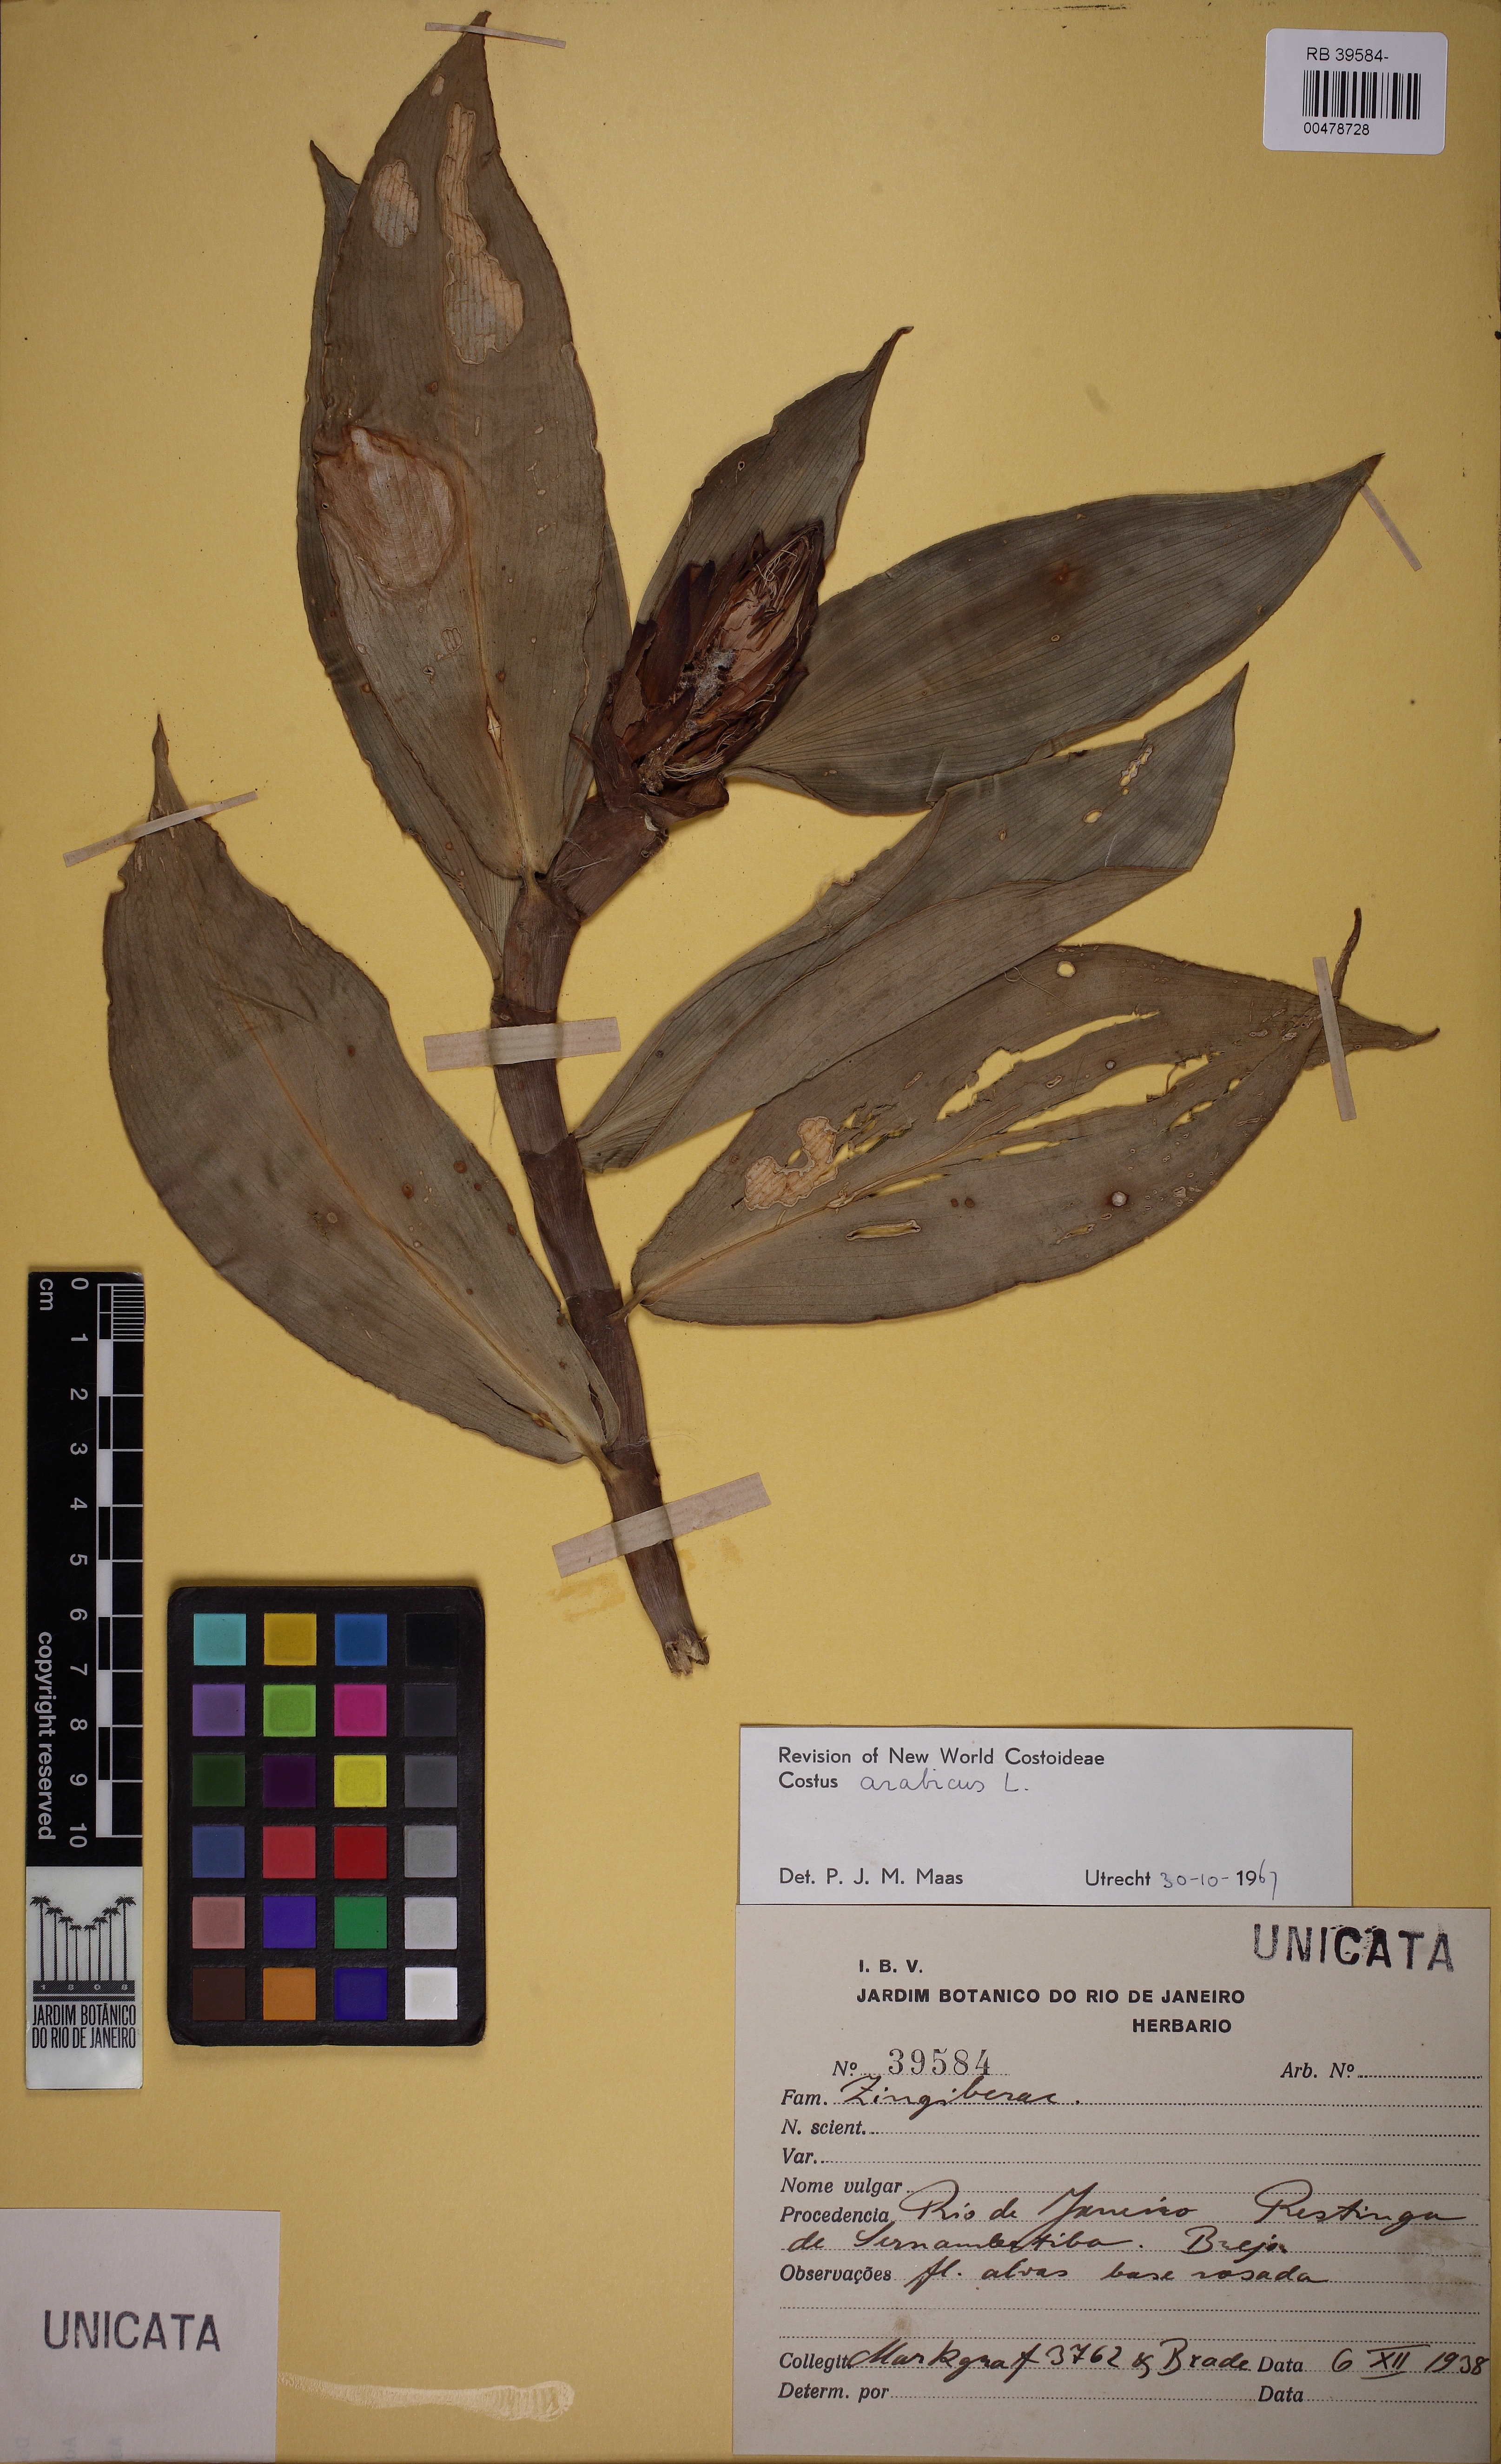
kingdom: Plantae
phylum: Tracheophyta
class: Liliopsida
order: Zingiberales
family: Costaceae
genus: Costus
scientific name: Costus arabicus
